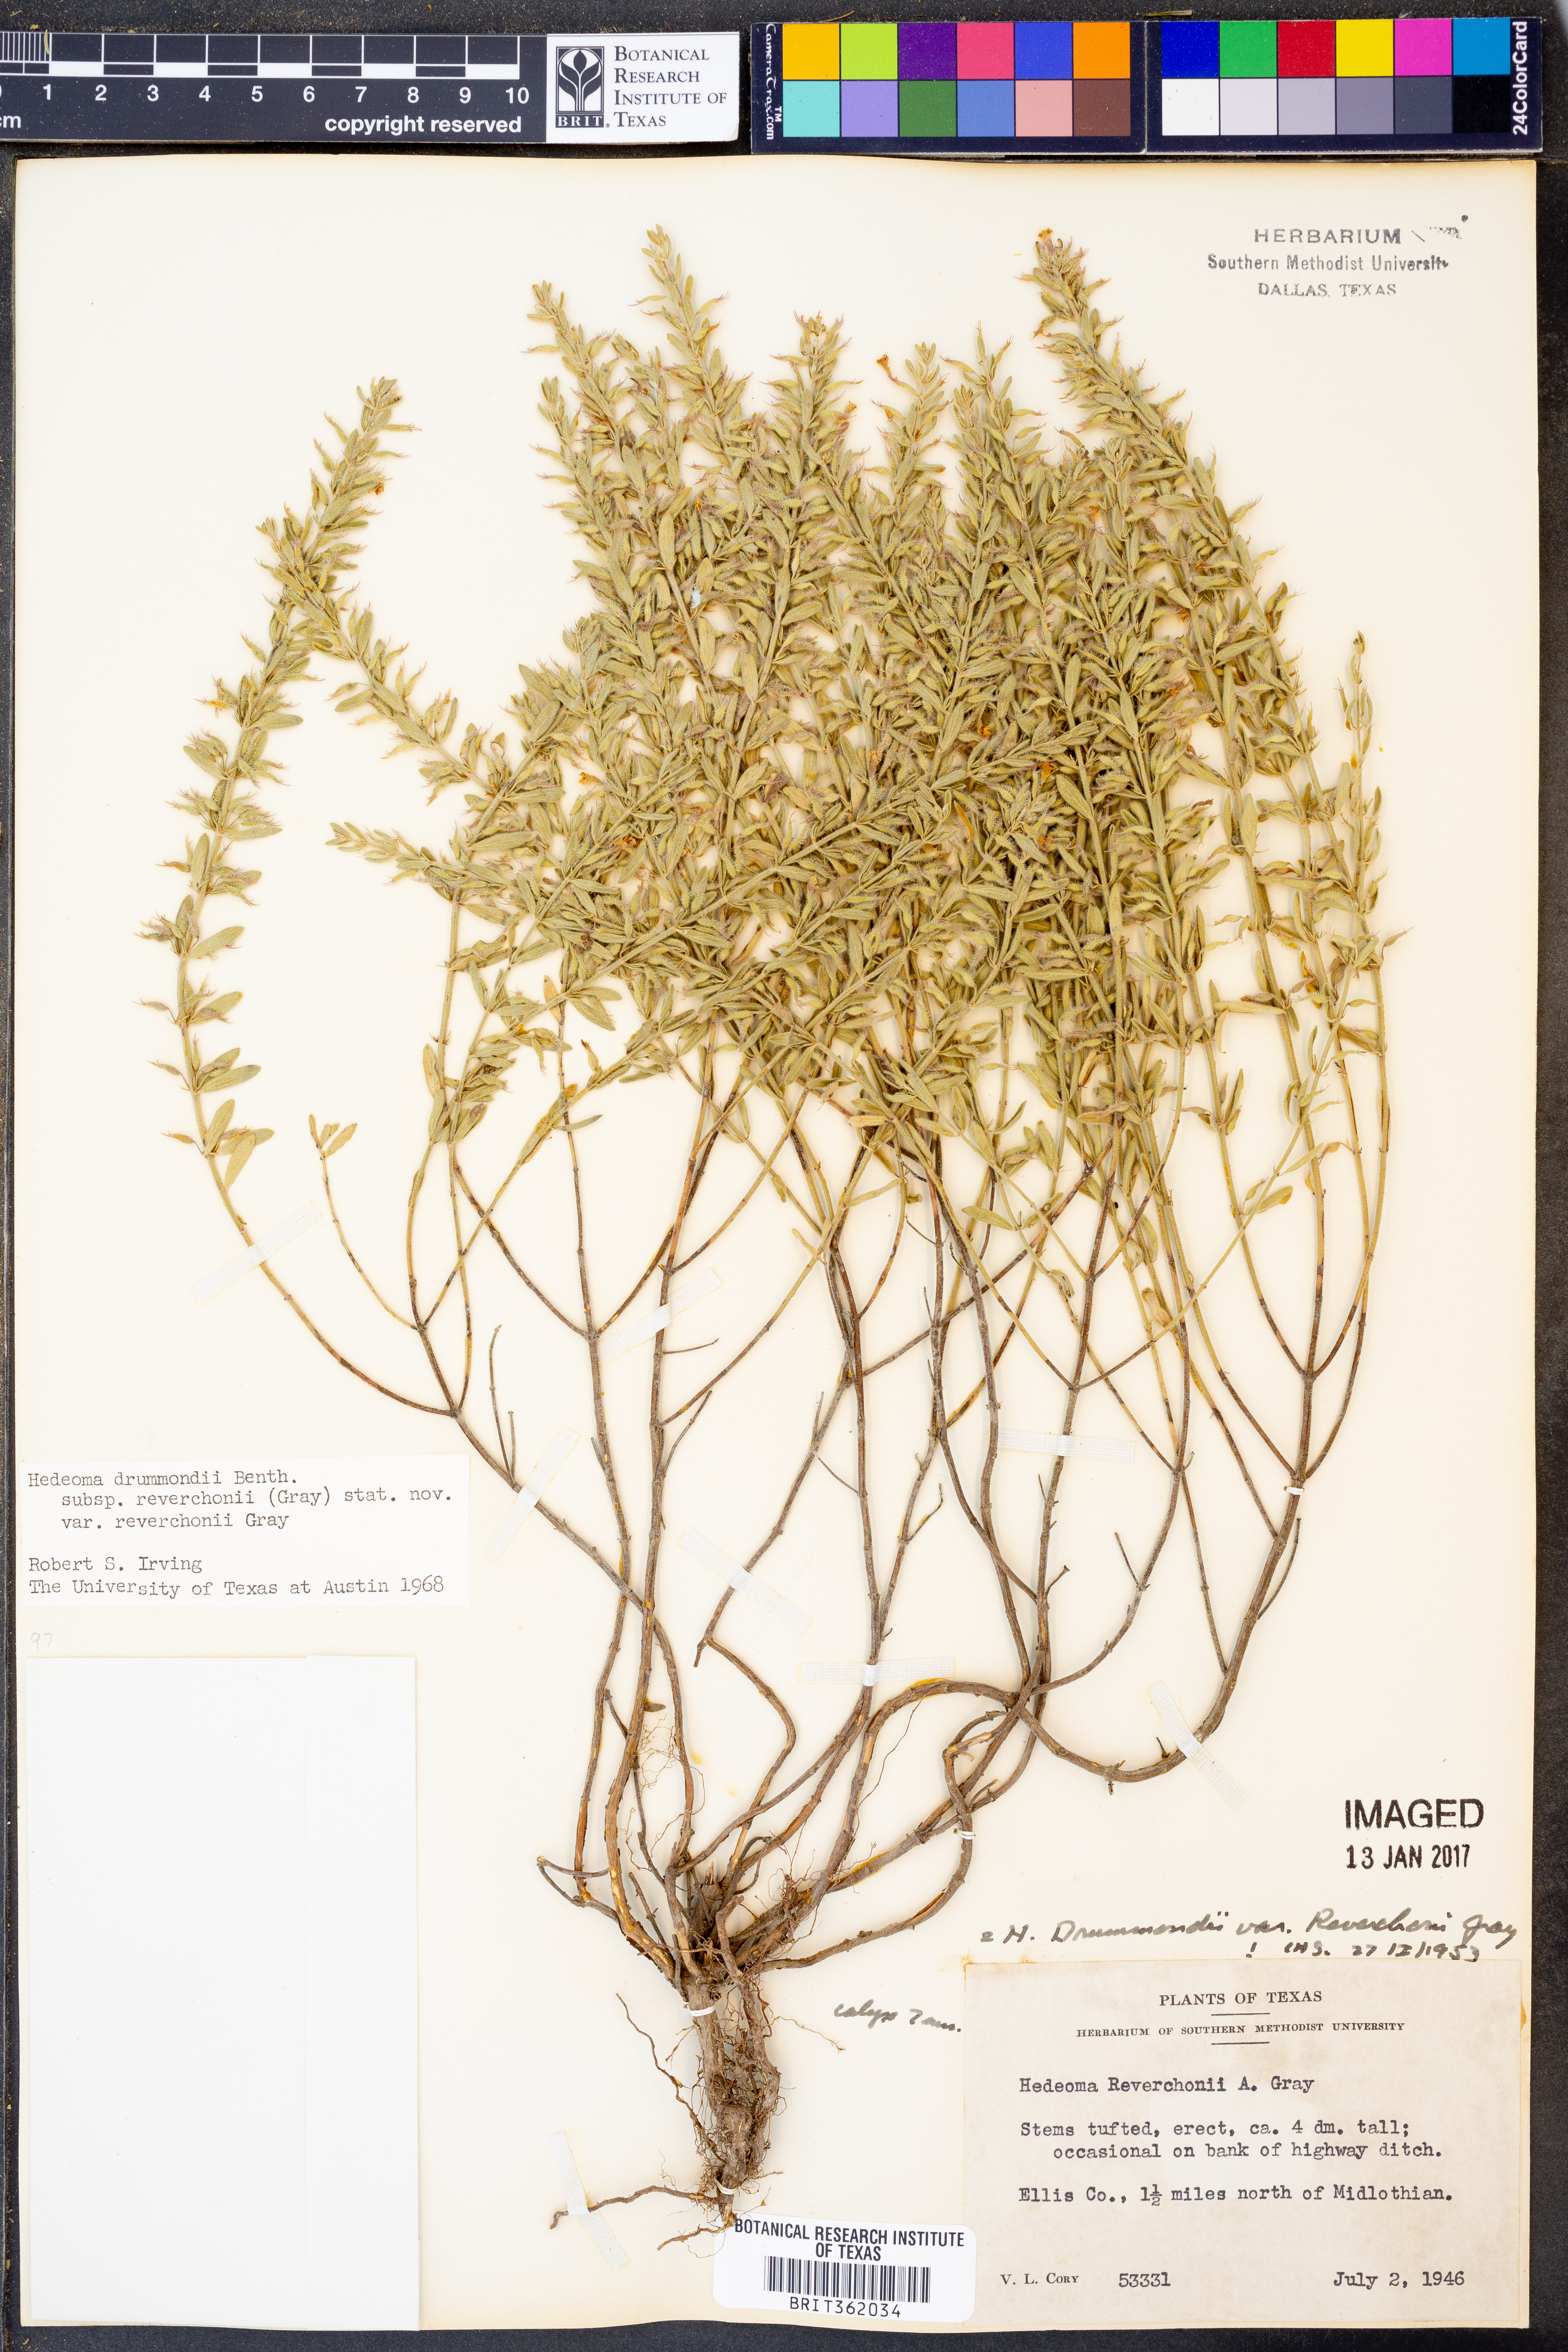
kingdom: Plantae
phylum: Tracheophyta
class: Magnoliopsida
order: Lamiales
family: Lamiaceae
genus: Hedeoma
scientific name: Hedeoma reverchonii
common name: Reverchon's false penny-royal
